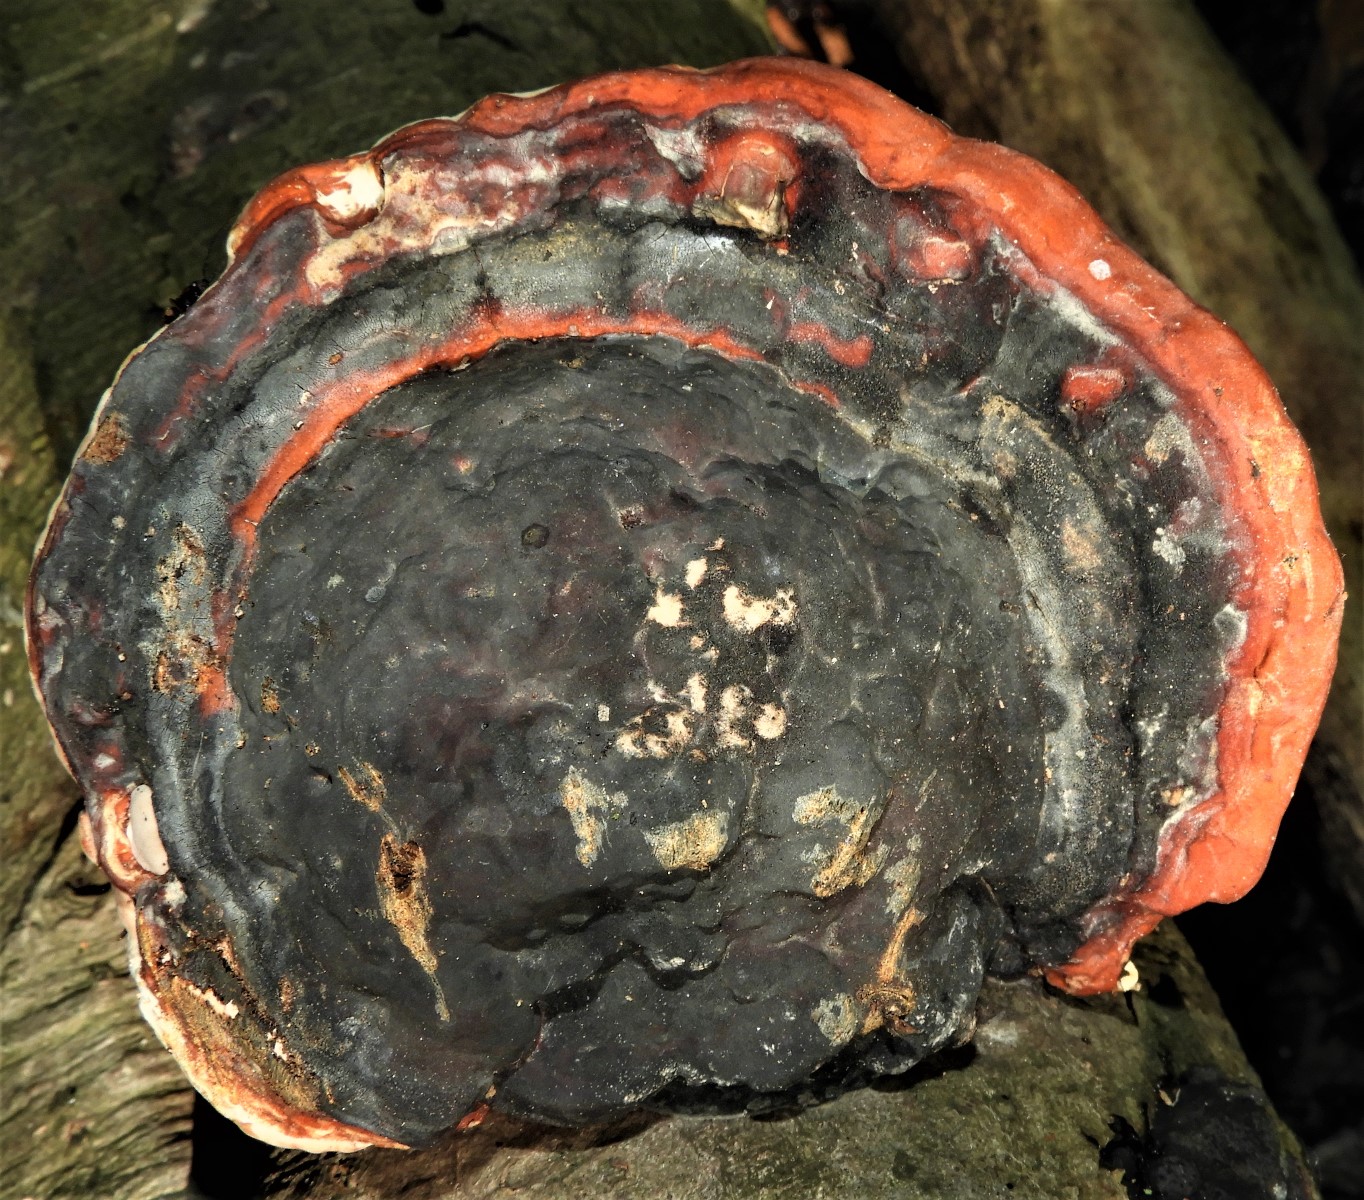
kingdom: Fungi
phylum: Basidiomycota
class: Agaricomycetes
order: Polyporales
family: Fomitopsidaceae
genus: Fomitopsis
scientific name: Fomitopsis pinicola
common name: randbæltet hovporesvamp
